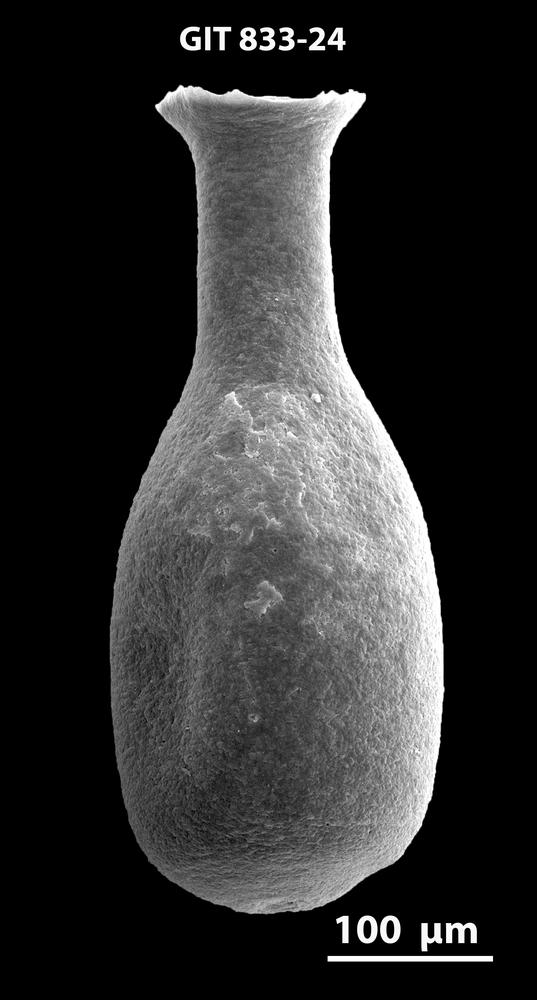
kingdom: Animalia
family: Lagenochitinidae
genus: Lagenochitina
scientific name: Lagenochitina
